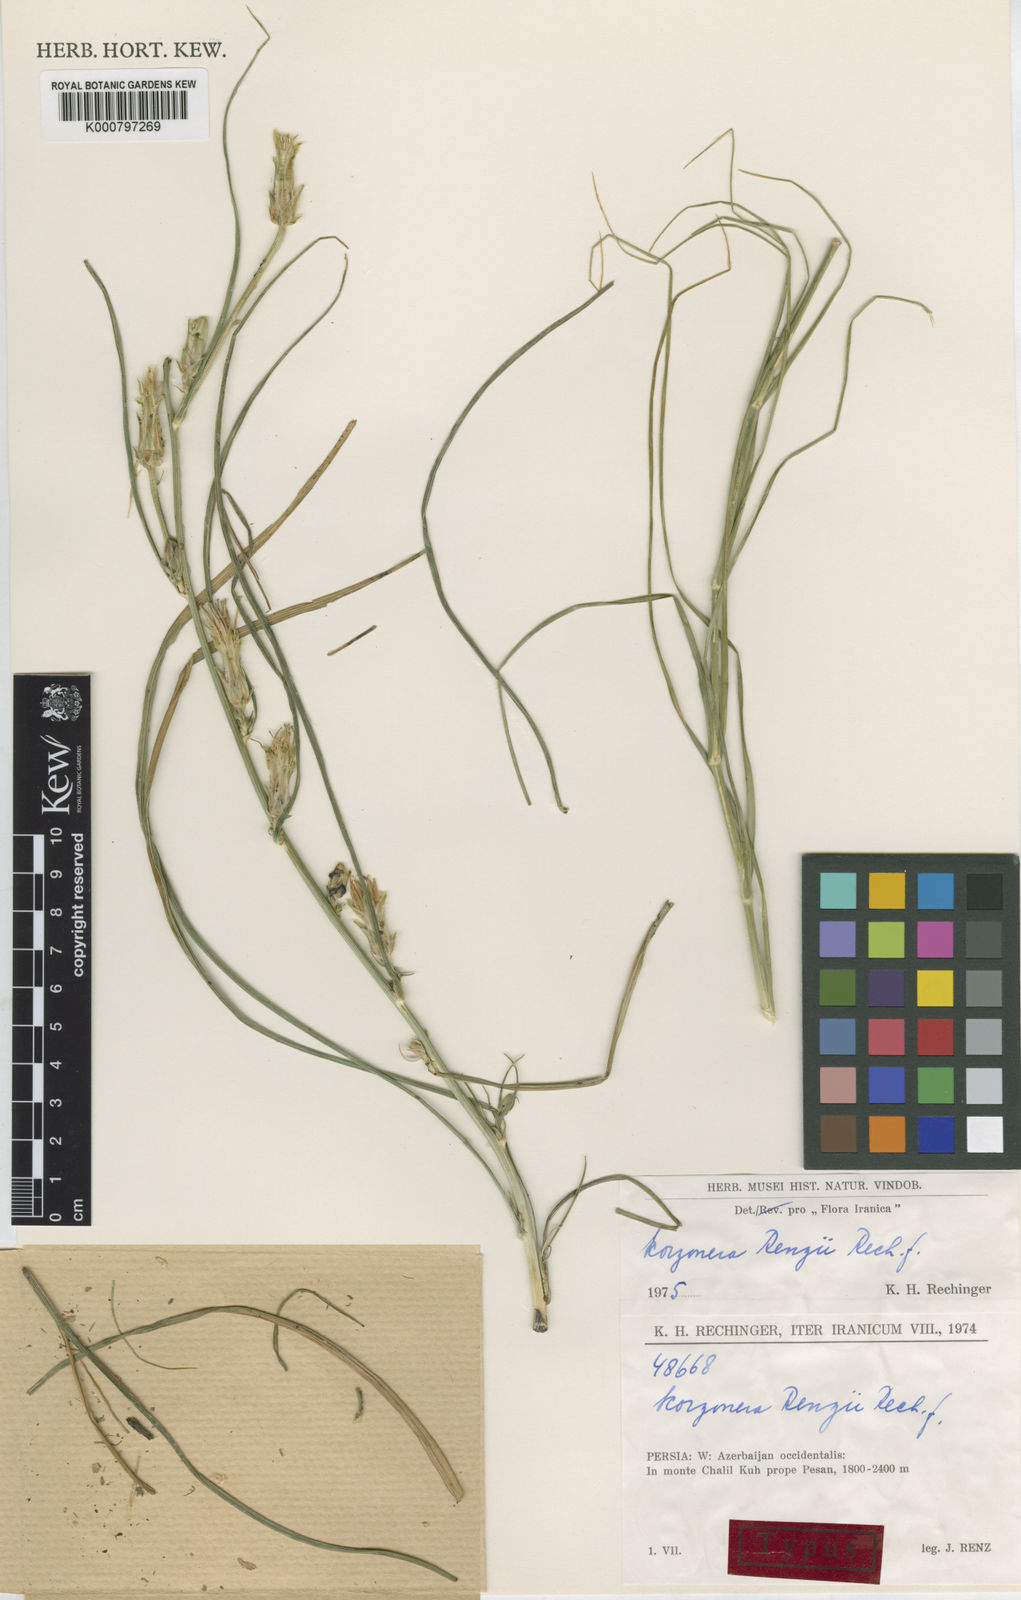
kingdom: Plantae
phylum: Tracheophyta
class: Magnoliopsida
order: Asterales
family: Asteraceae
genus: Candollea
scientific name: Candollea renzii
